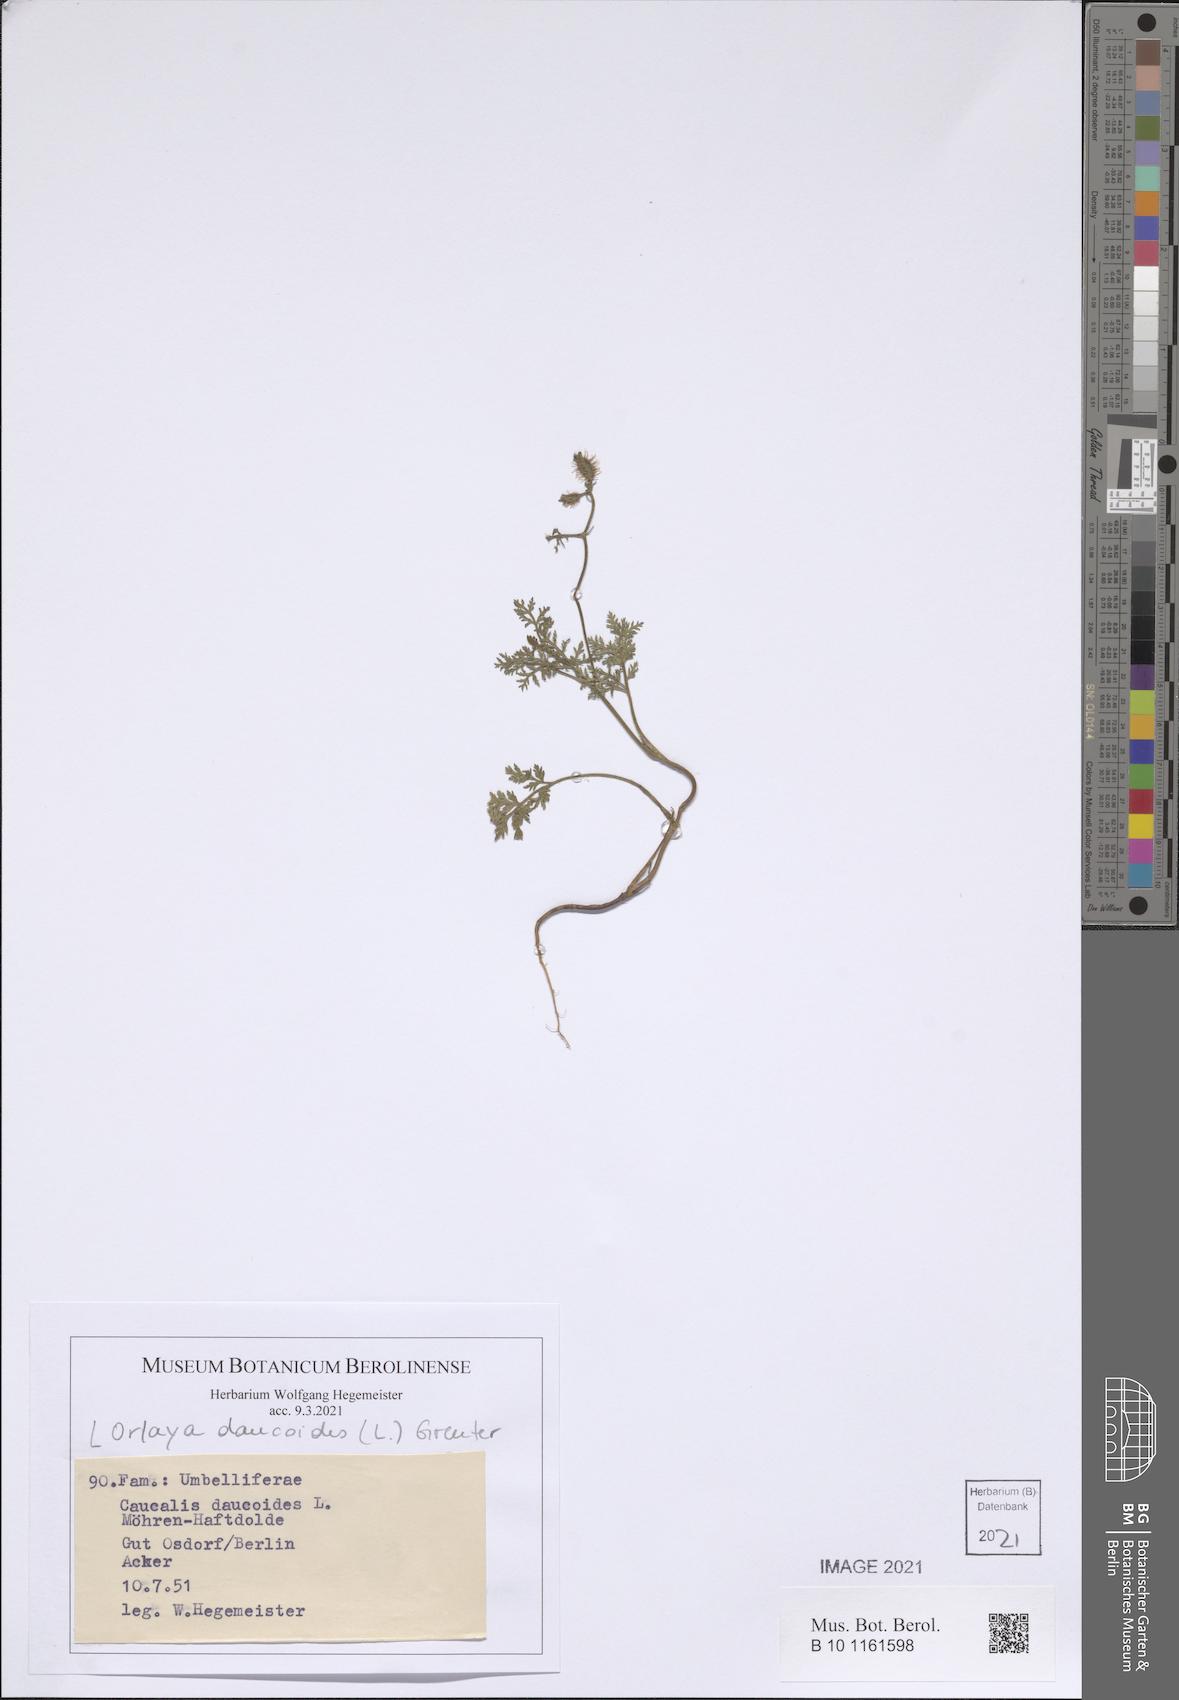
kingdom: Plantae
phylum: Tracheophyta
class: Magnoliopsida
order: Apiales
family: Apiaceae
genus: Orlaya
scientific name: Orlaya daucoides
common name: Flat-fruit orlaya
